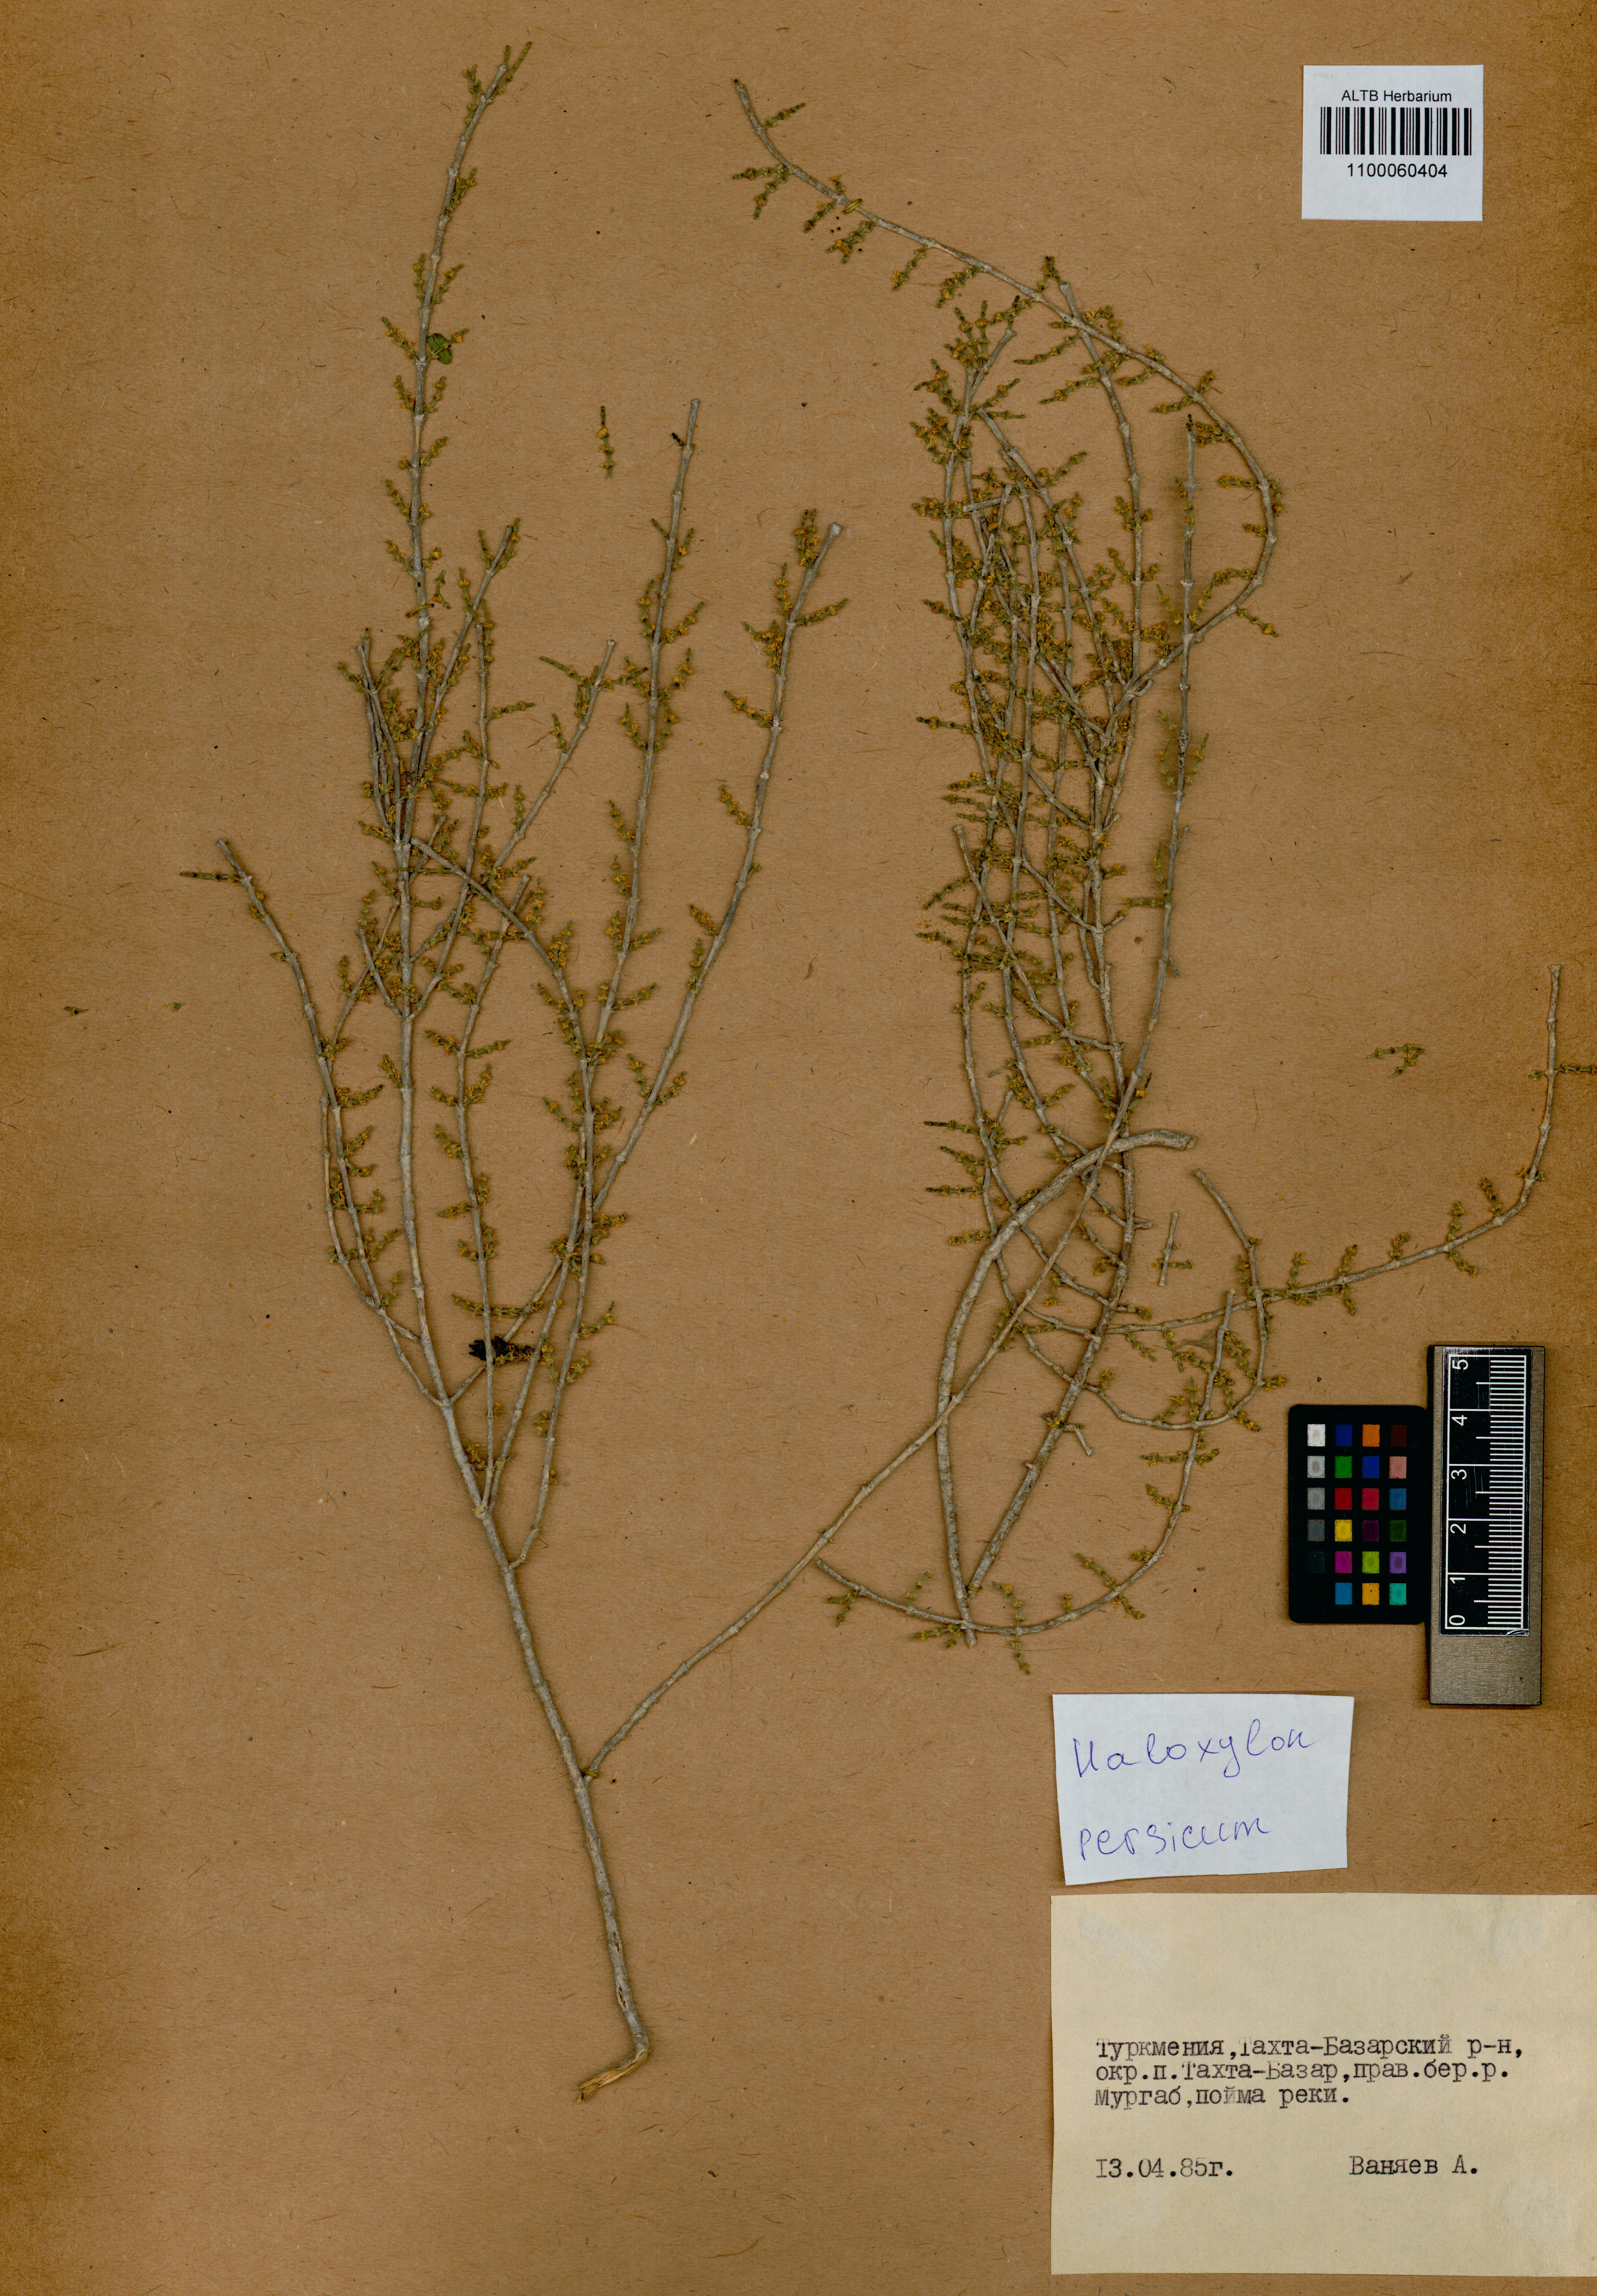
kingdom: Plantae
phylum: Tracheophyta
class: Magnoliopsida
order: Caryophyllales
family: Amaranthaceae
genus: Haloxylon
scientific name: Haloxylon persicum
